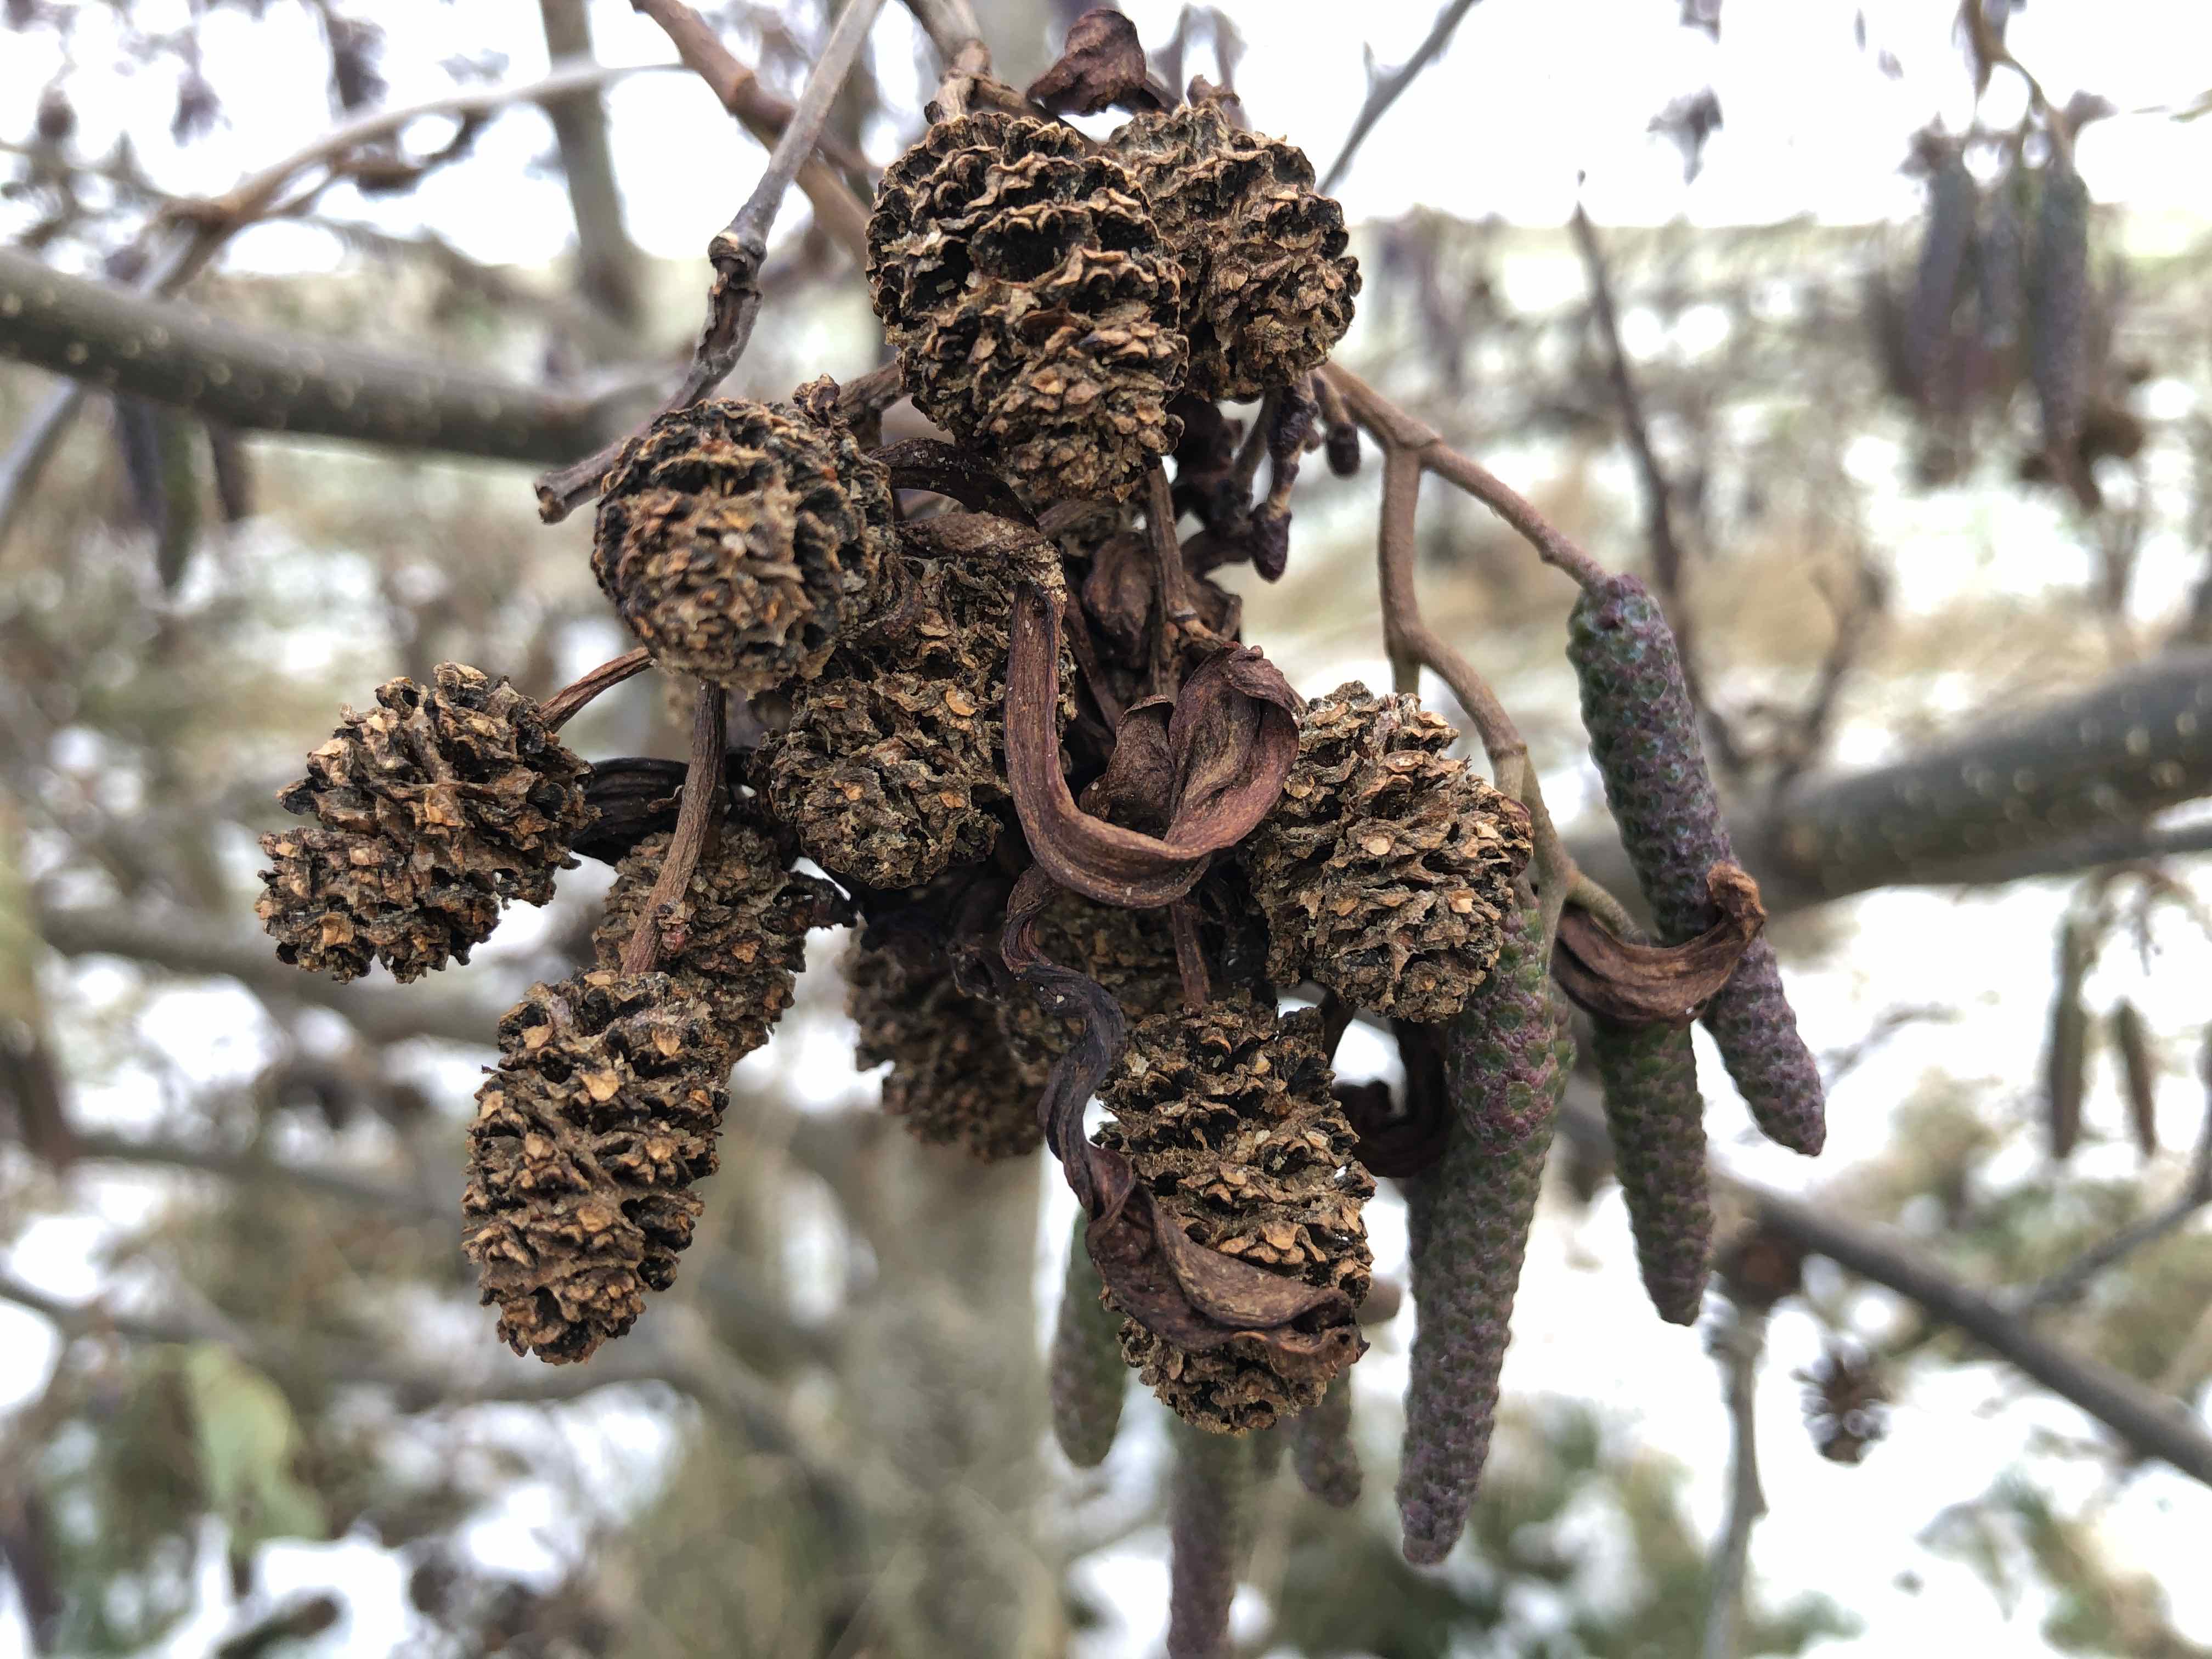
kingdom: Fungi
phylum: Ascomycota
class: Taphrinomycetes
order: Taphrinales
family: Taphrinaceae
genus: Taphrina
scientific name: Taphrina alni
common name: Alder tongue
